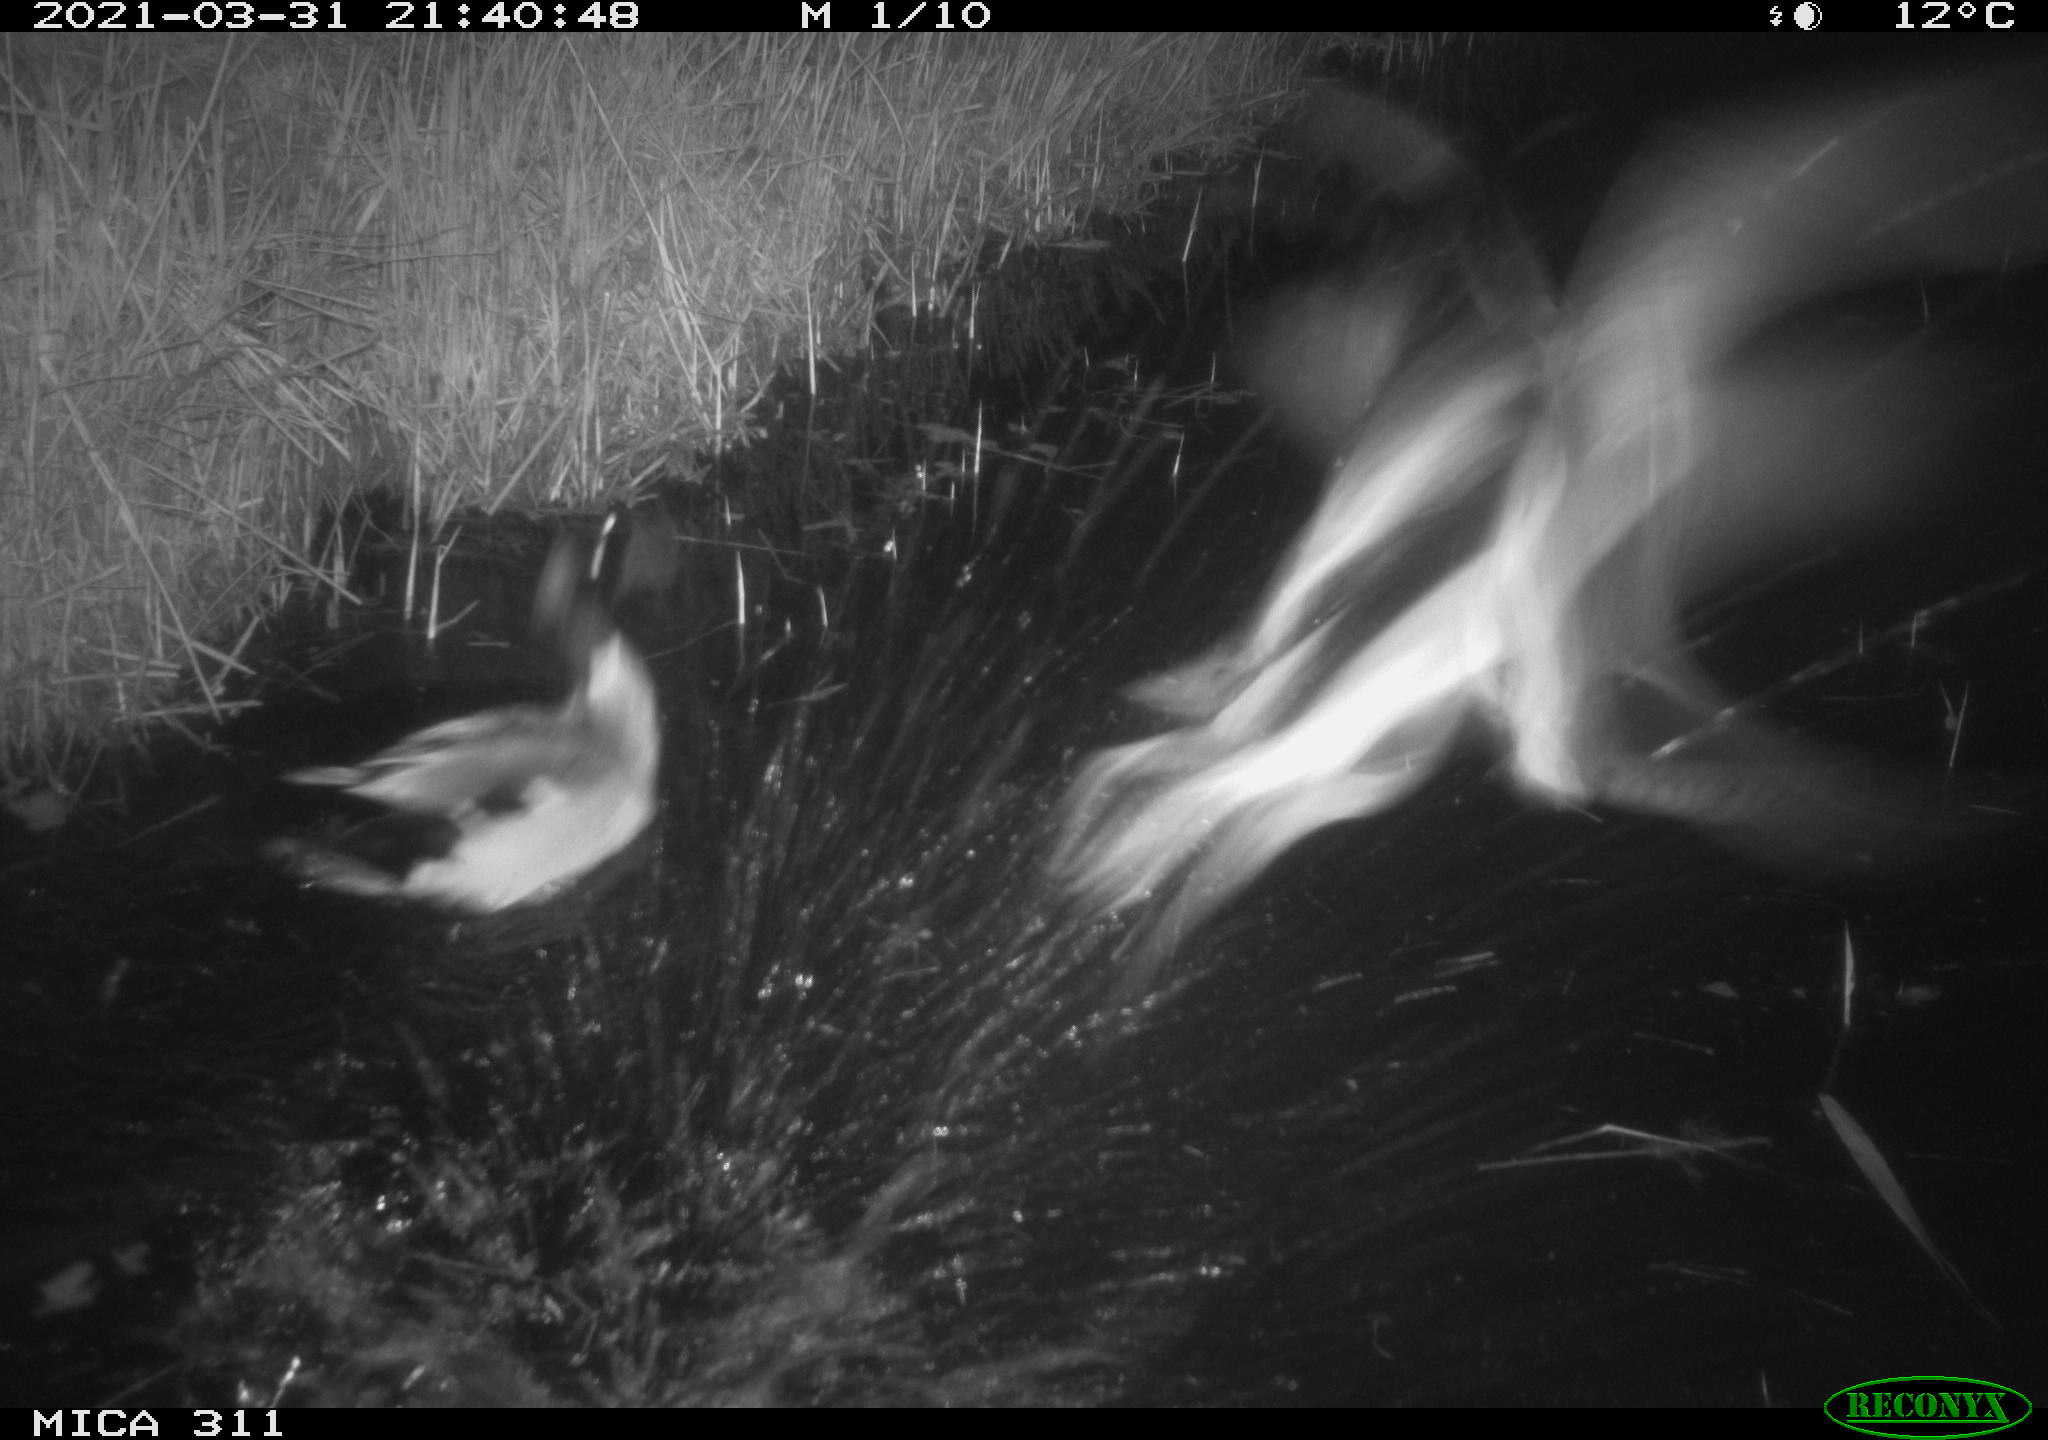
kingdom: Animalia
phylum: Chordata
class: Aves
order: Anseriformes
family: Anatidae
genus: Anas
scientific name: Anas platyrhynchos
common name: Mallard
